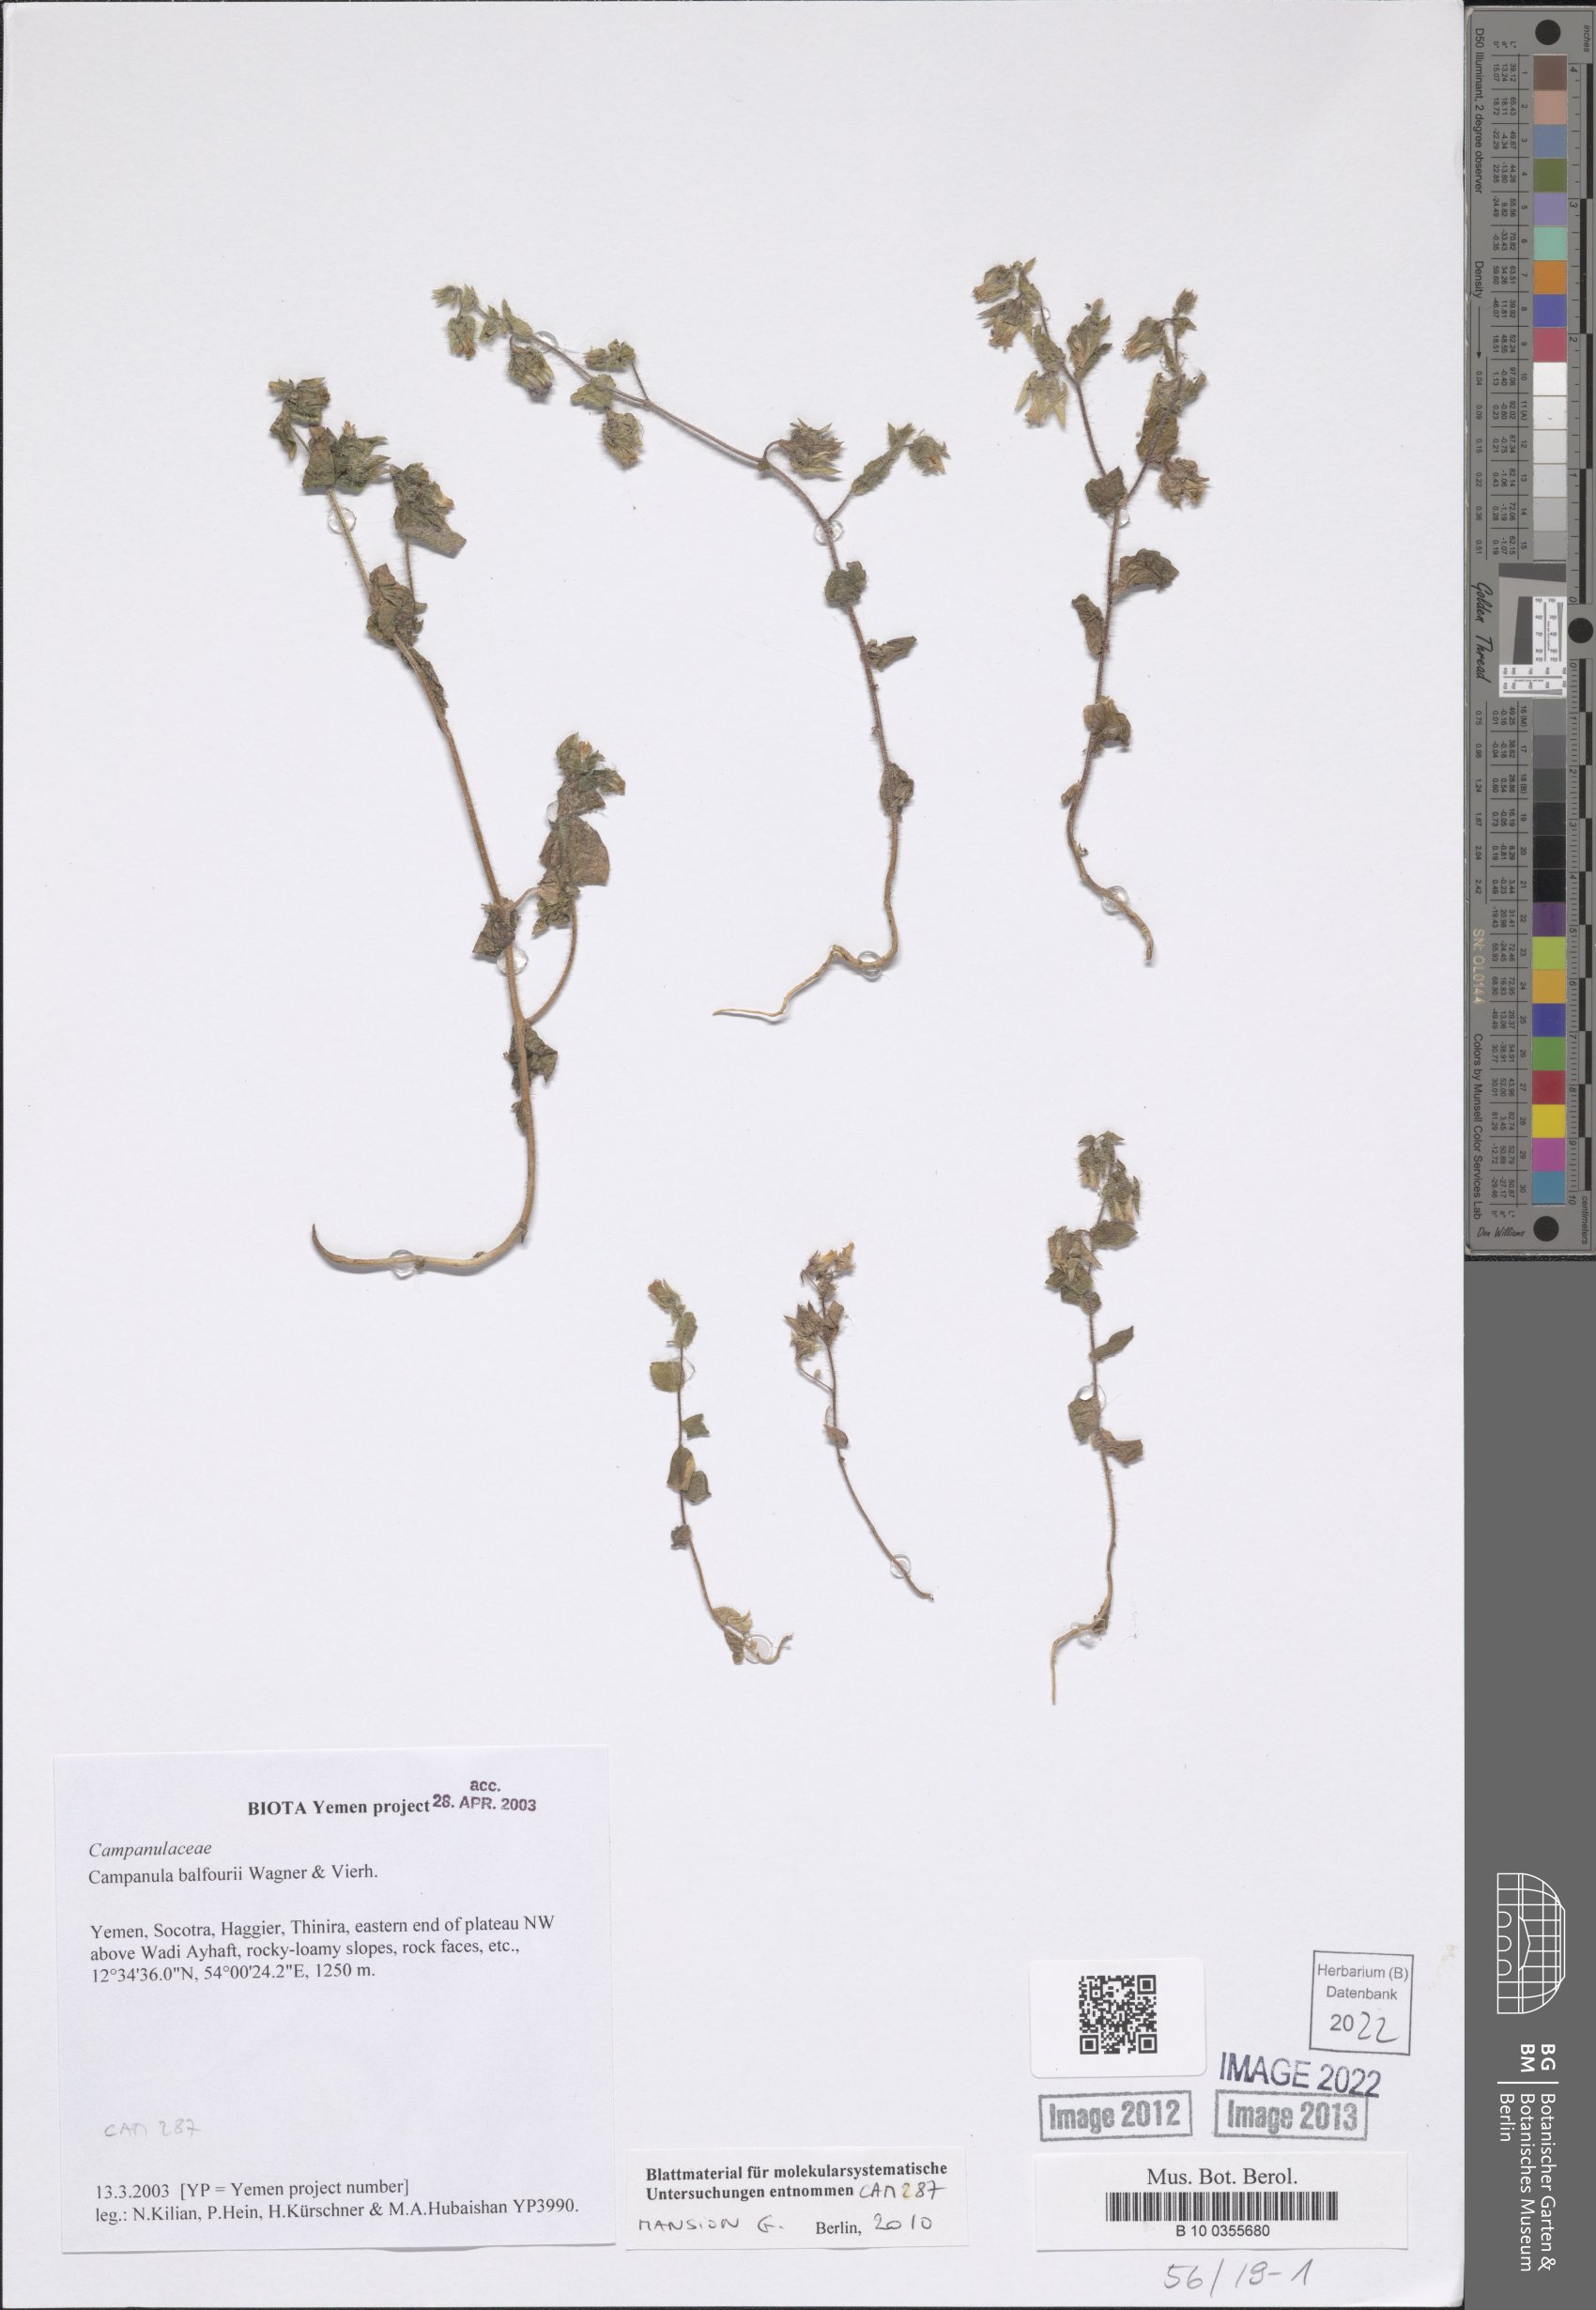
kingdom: Plantae
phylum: Tracheophyta
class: Magnoliopsida
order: Asterales
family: Campanulaceae
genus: Campanula
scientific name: Campanula balfourii
